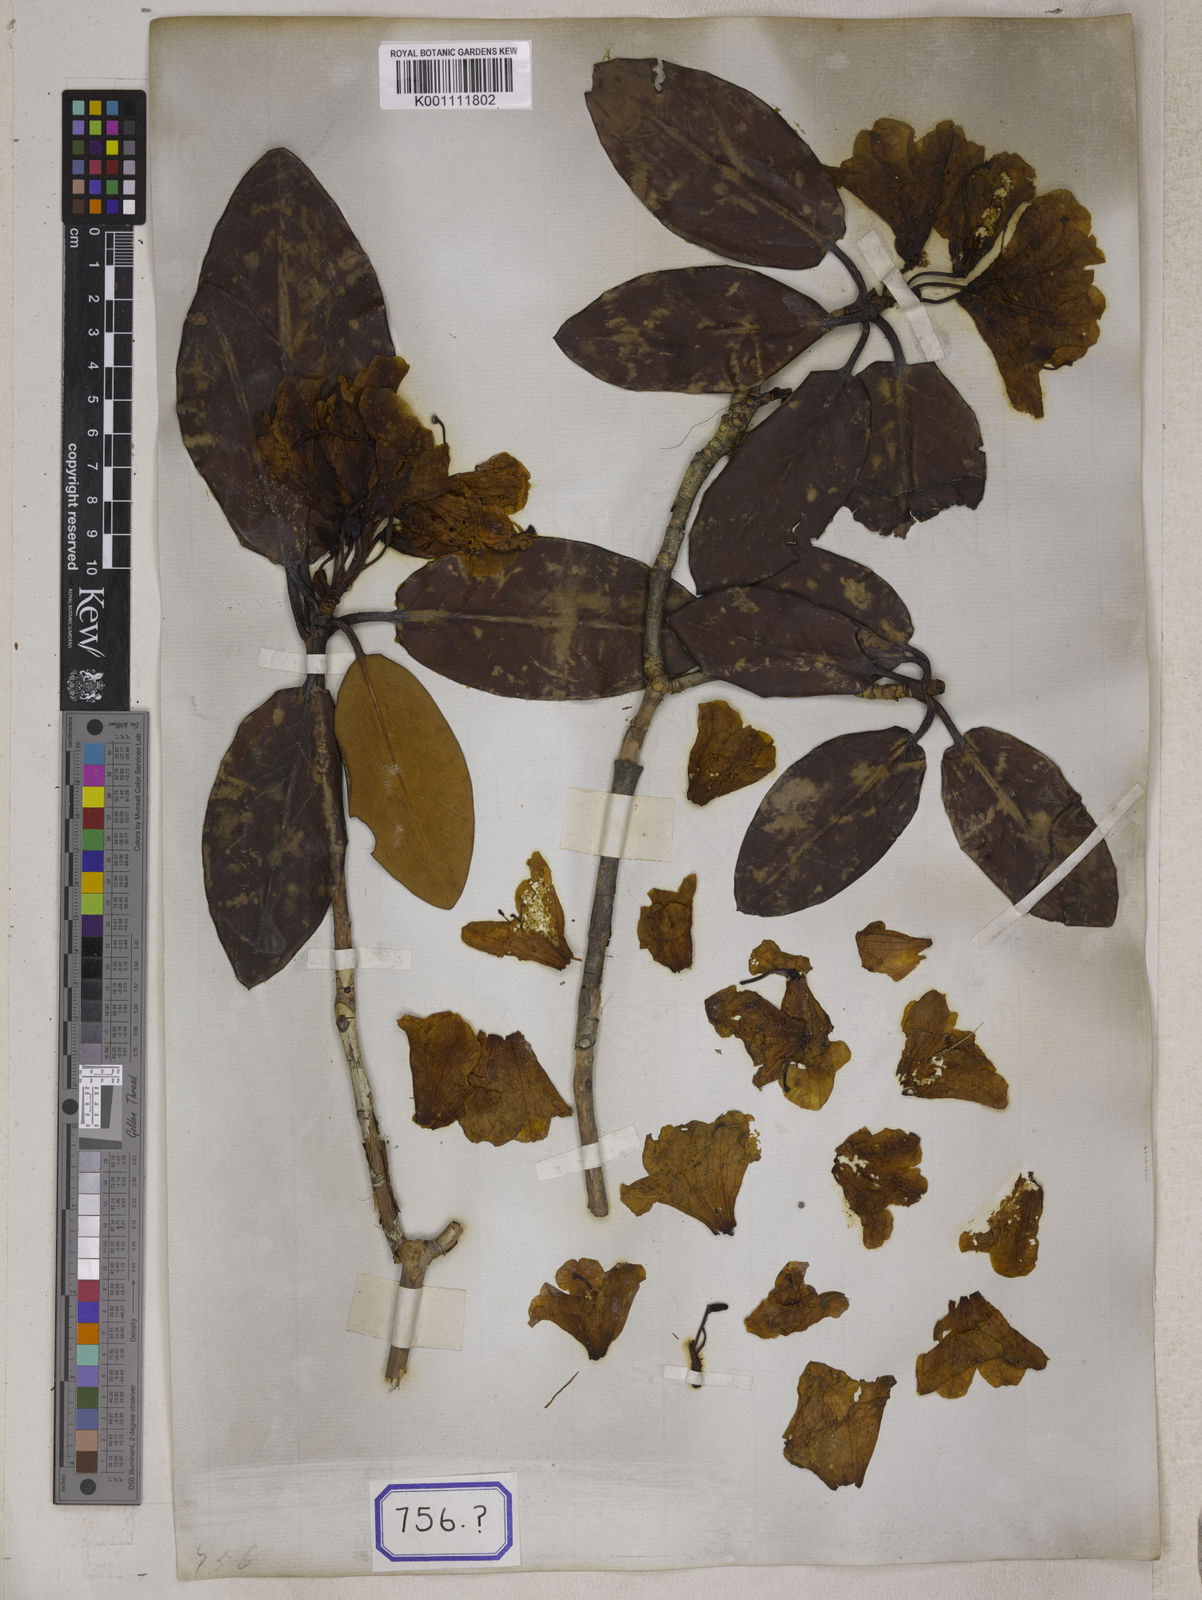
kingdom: Plantae
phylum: Tracheophyta
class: Magnoliopsida
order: Ericales
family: Ericaceae
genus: Rhododendron
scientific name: Rhododendron campanulatum
